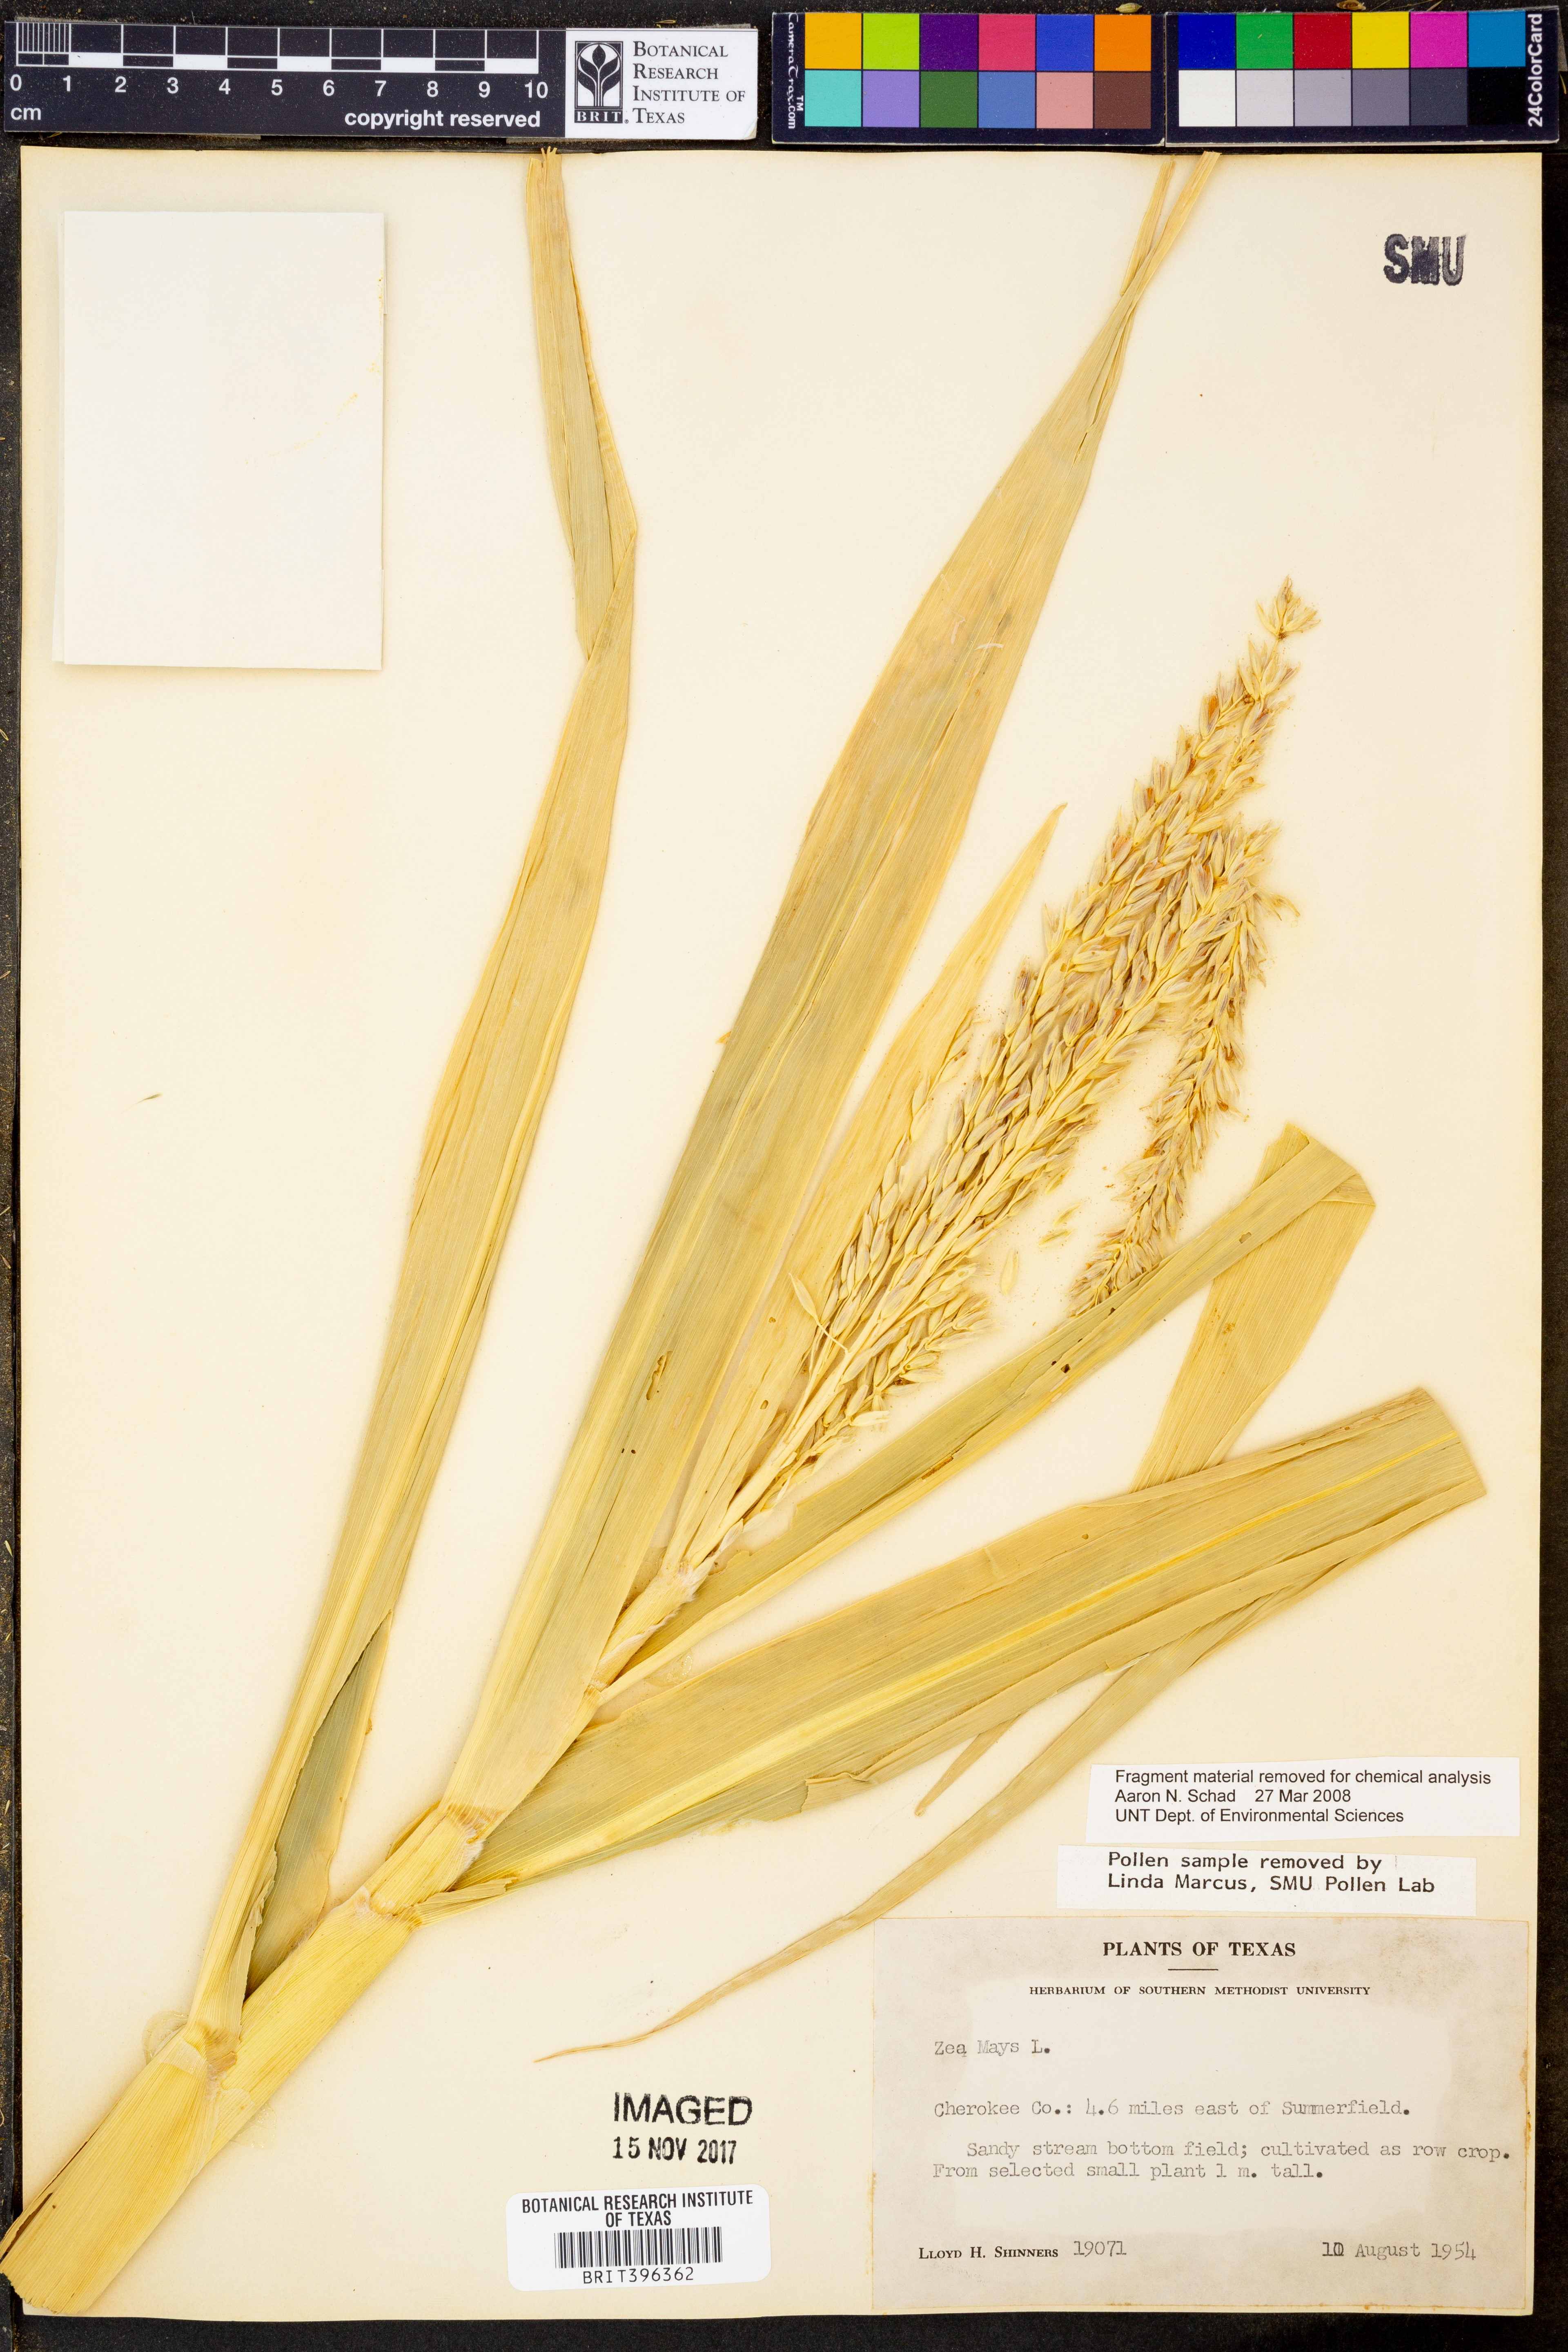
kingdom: Plantae
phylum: Tracheophyta
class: Liliopsida
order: Poales
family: Poaceae
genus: Zea
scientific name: Zea mays
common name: Maize
